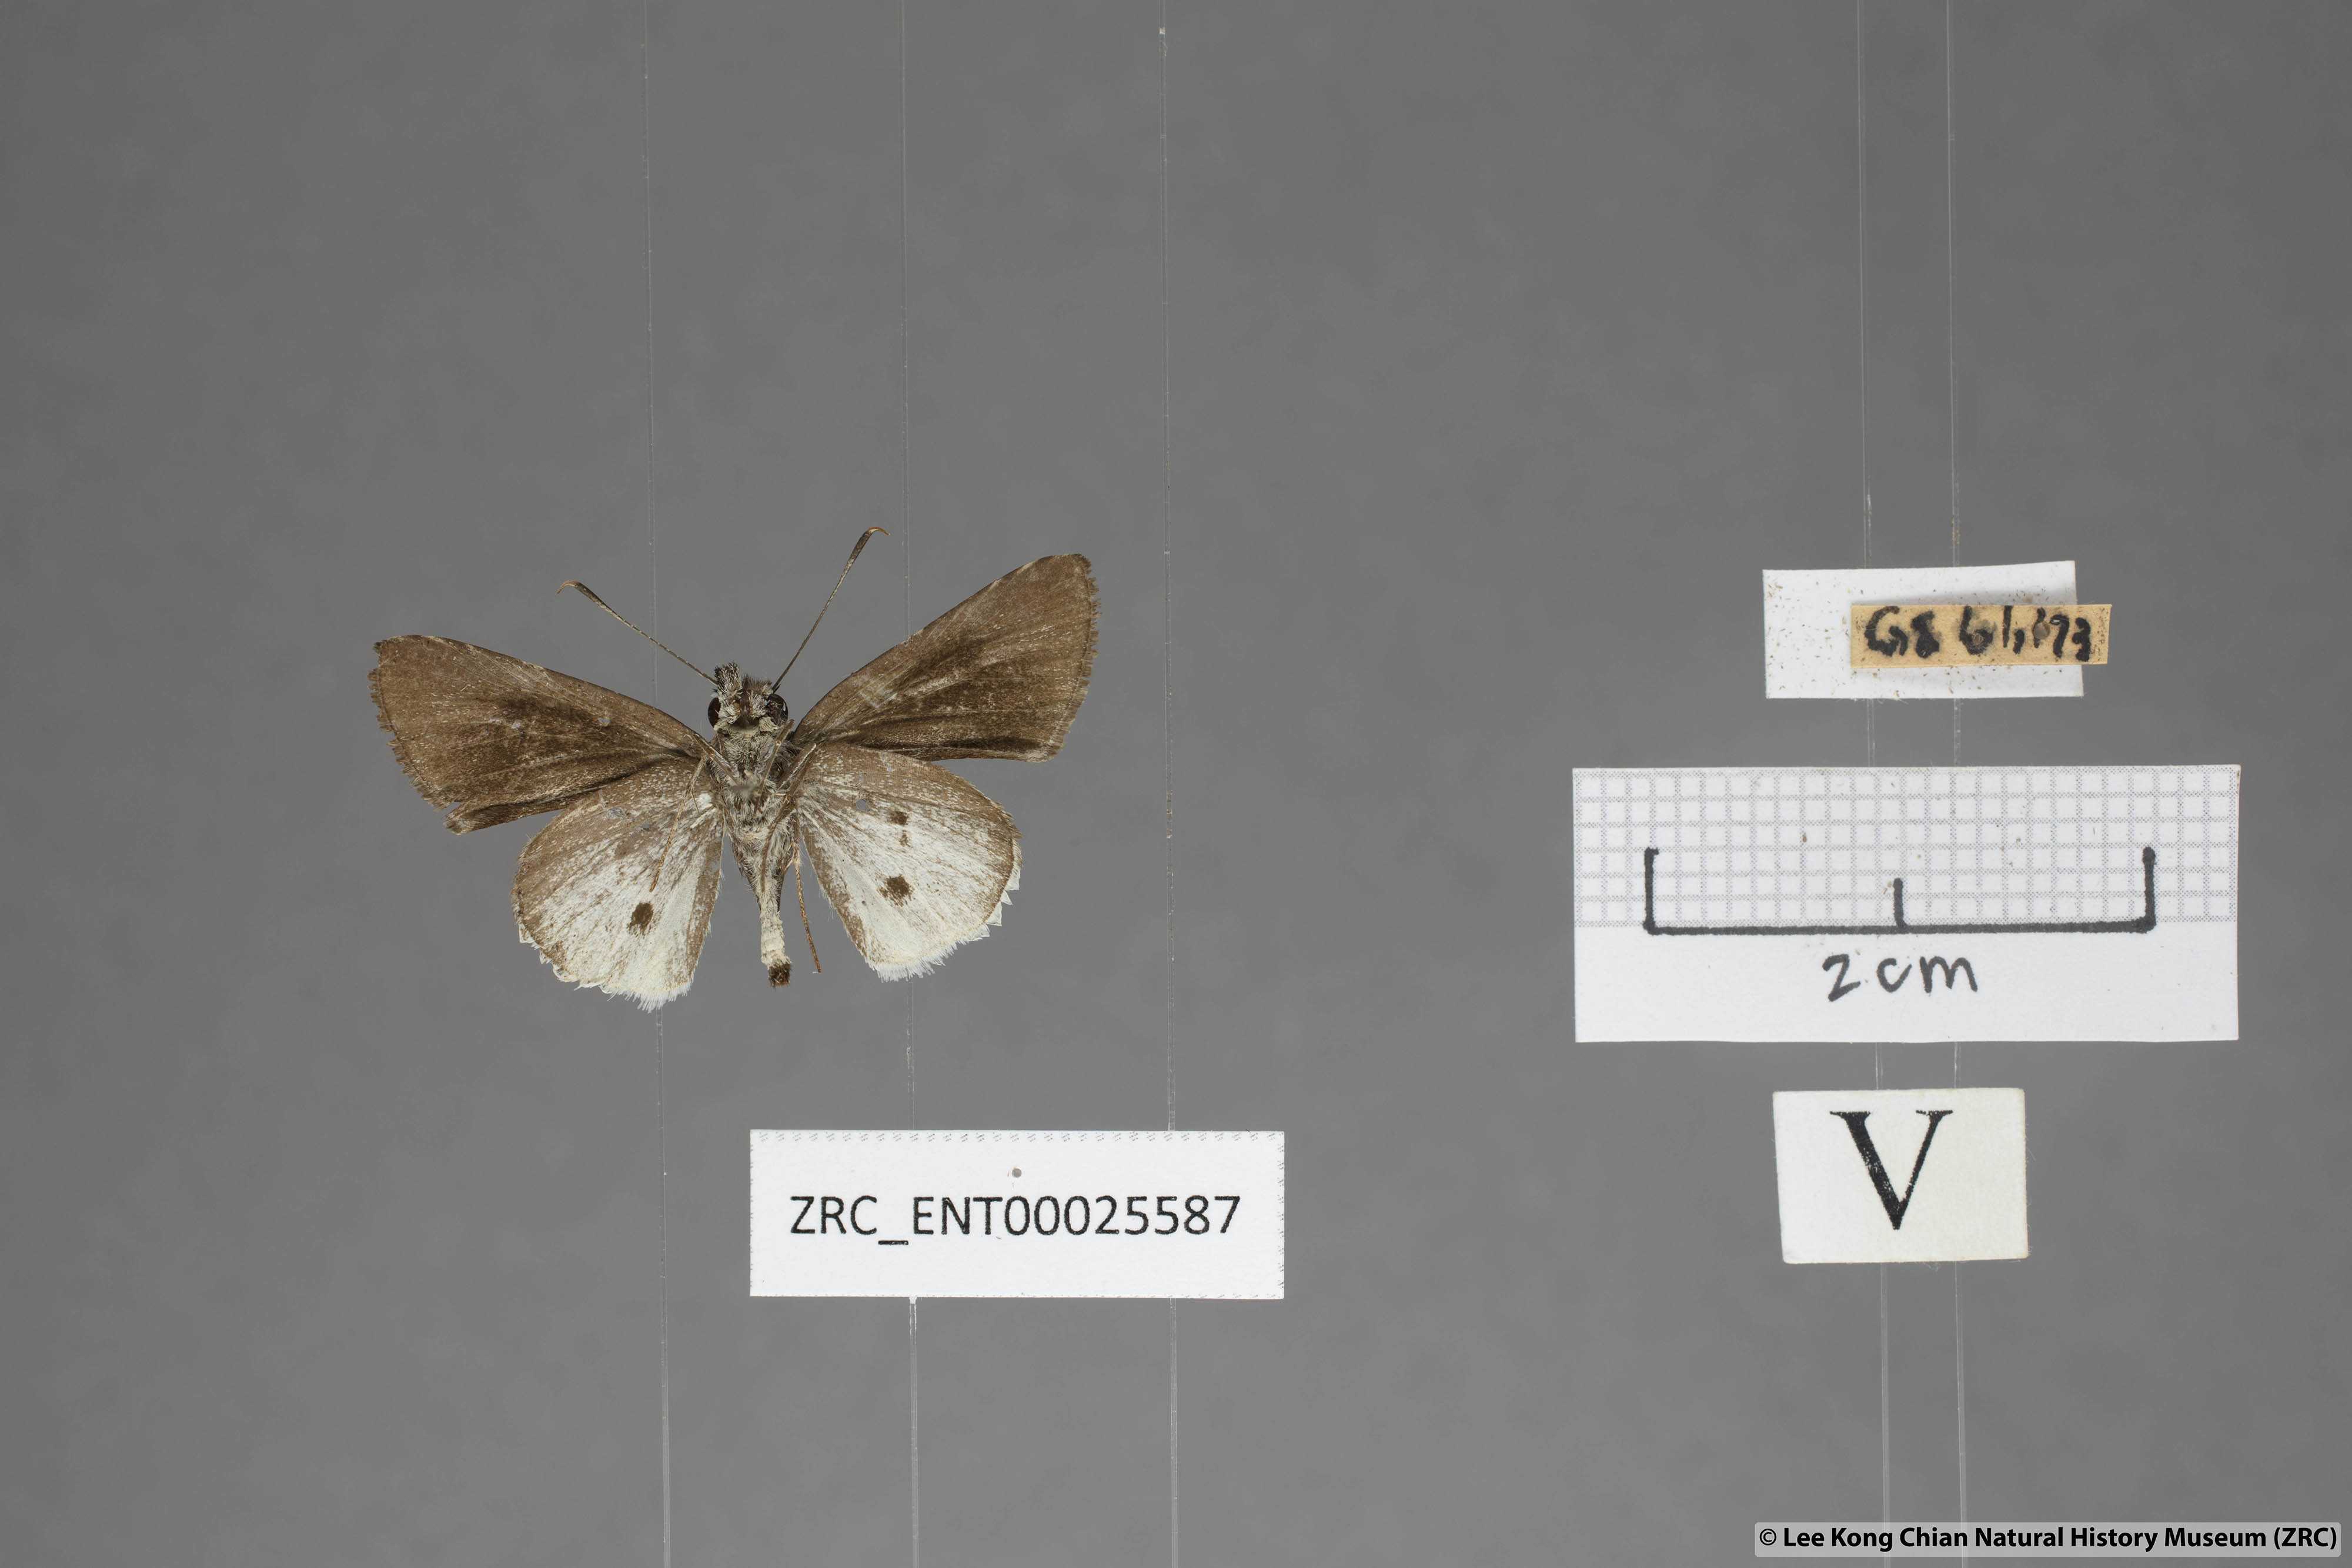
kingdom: Animalia
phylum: Arthropoda
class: Insecta
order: Lepidoptera
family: Hesperiidae
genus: Suastus
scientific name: Suastus everyx
